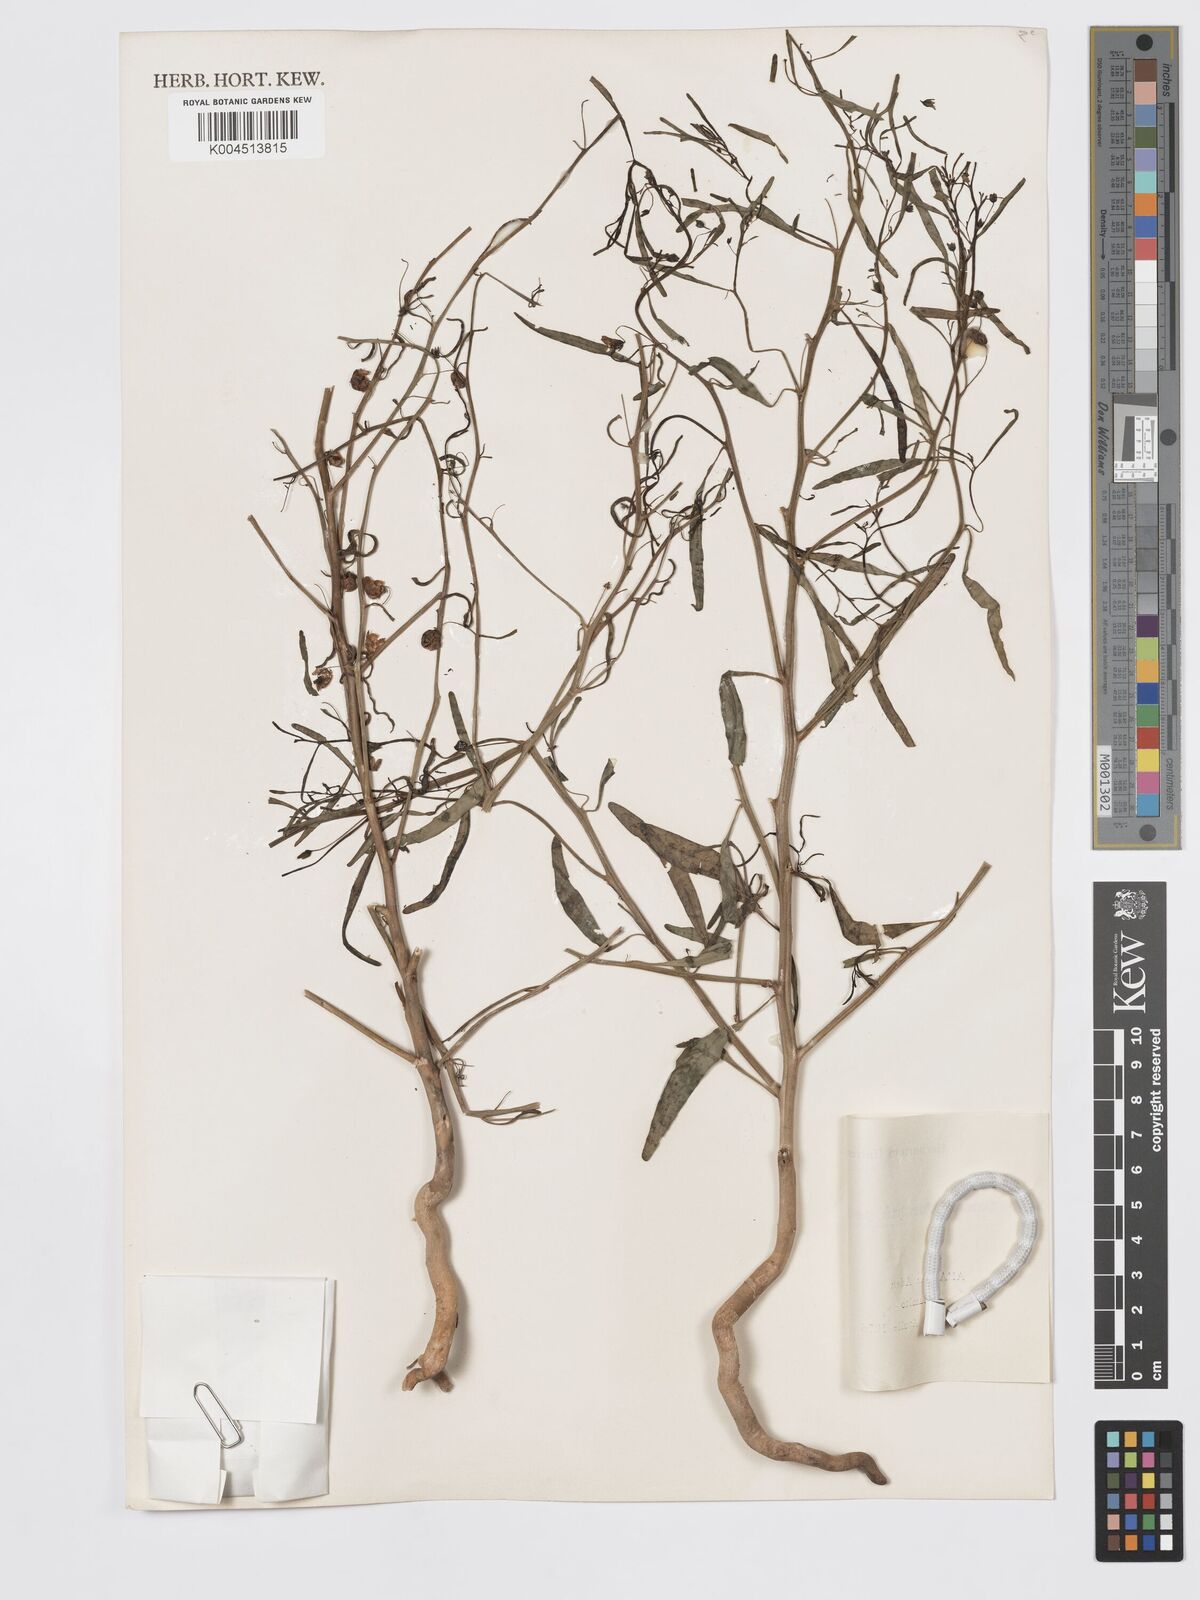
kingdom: Plantae
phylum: Tracheophyta
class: Magnoliopsida
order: Lamiales
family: Plantaginaceae
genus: Schweinfurthia
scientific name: Schweinfurthia pedicellata
